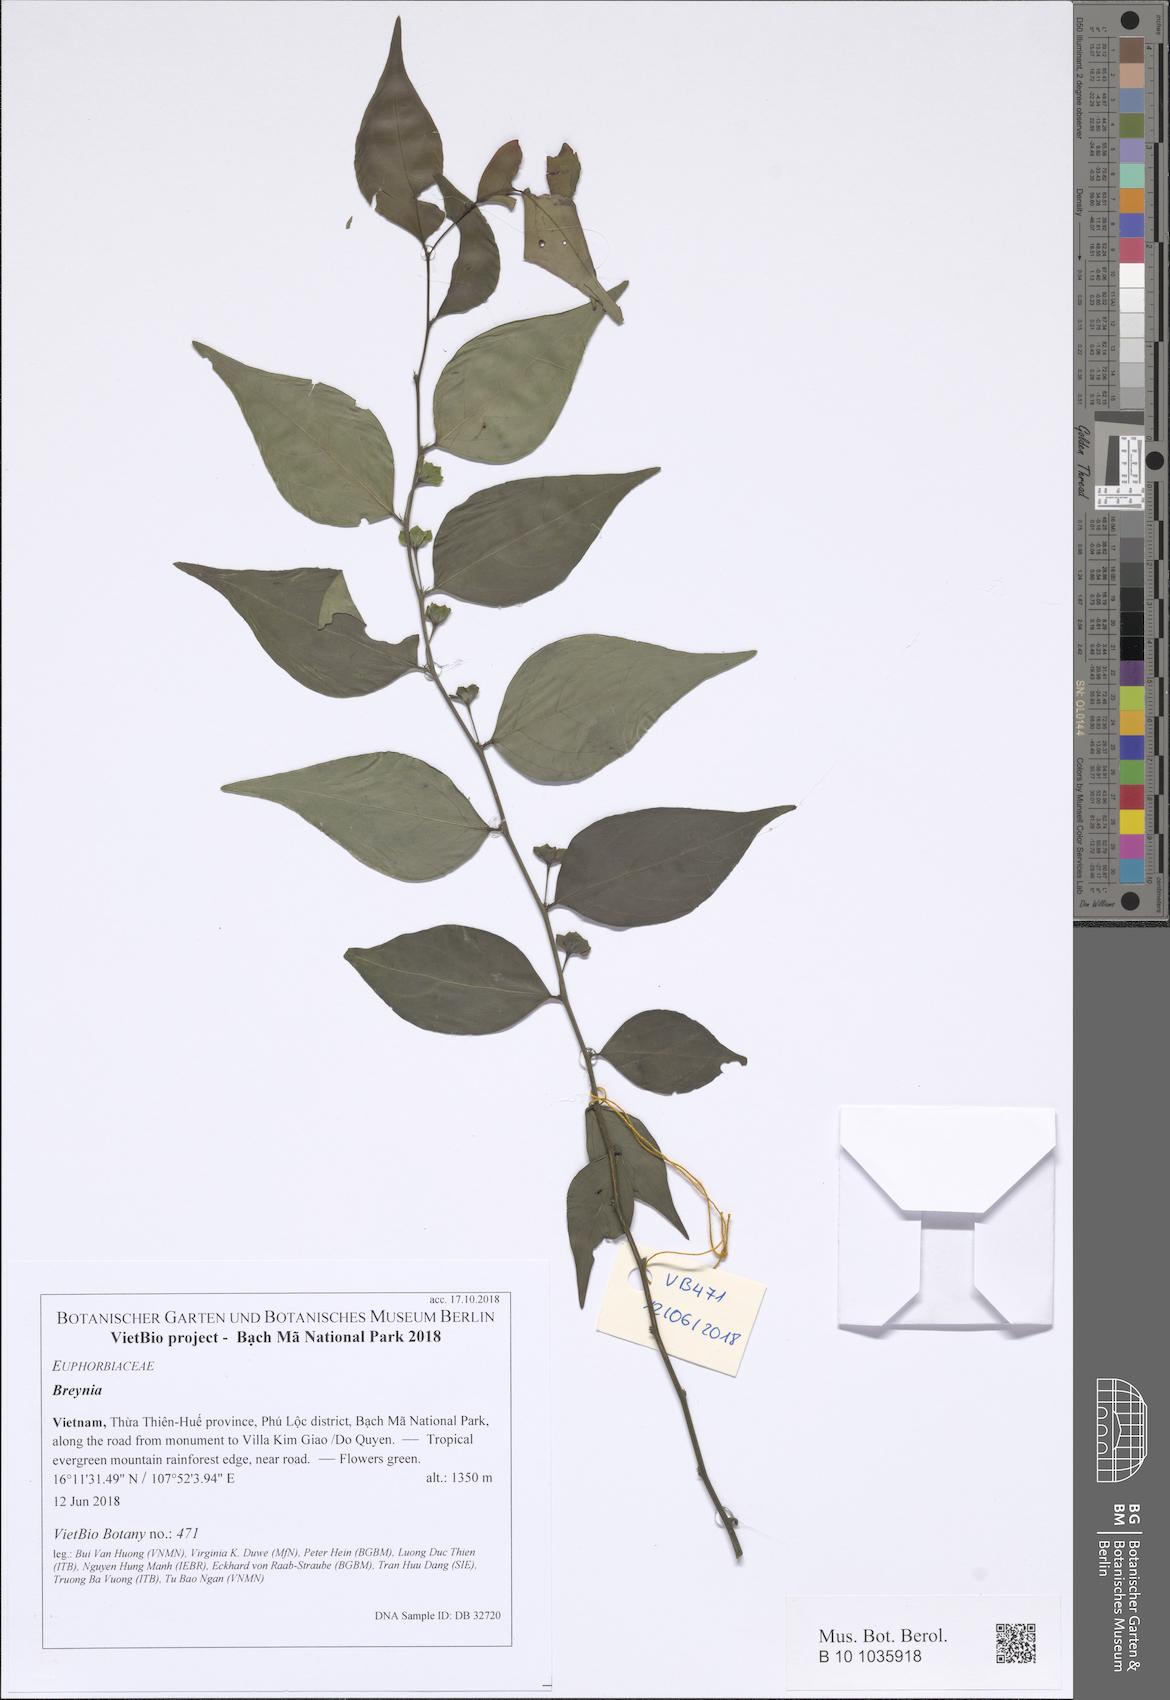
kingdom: Plantae
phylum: Tracheophyta
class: Magnoliopsida
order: Malpighiales
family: Phyllanthaceae
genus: Breynia
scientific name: Breynia
